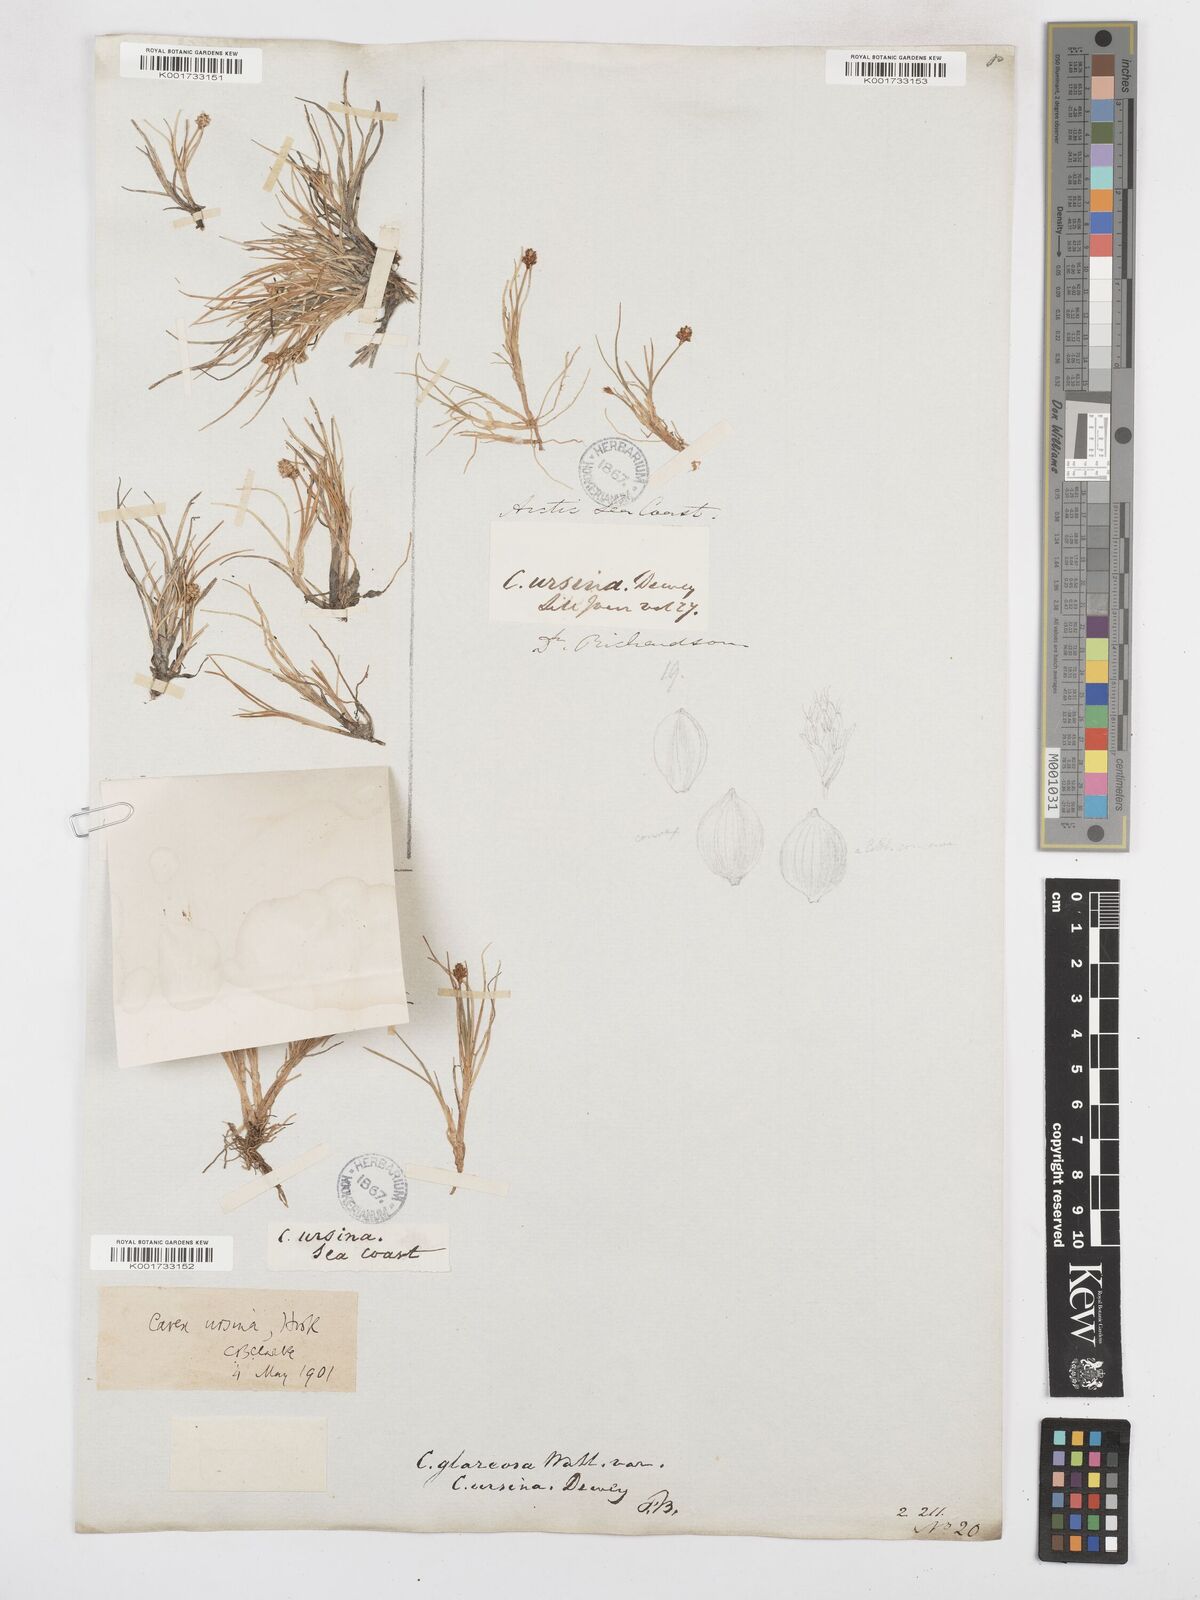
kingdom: Plantae
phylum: Tracheophyta
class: Liliopsida
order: Poales
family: Cyperaceae
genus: Carex
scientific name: Carex ursina
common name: Bear sedge
